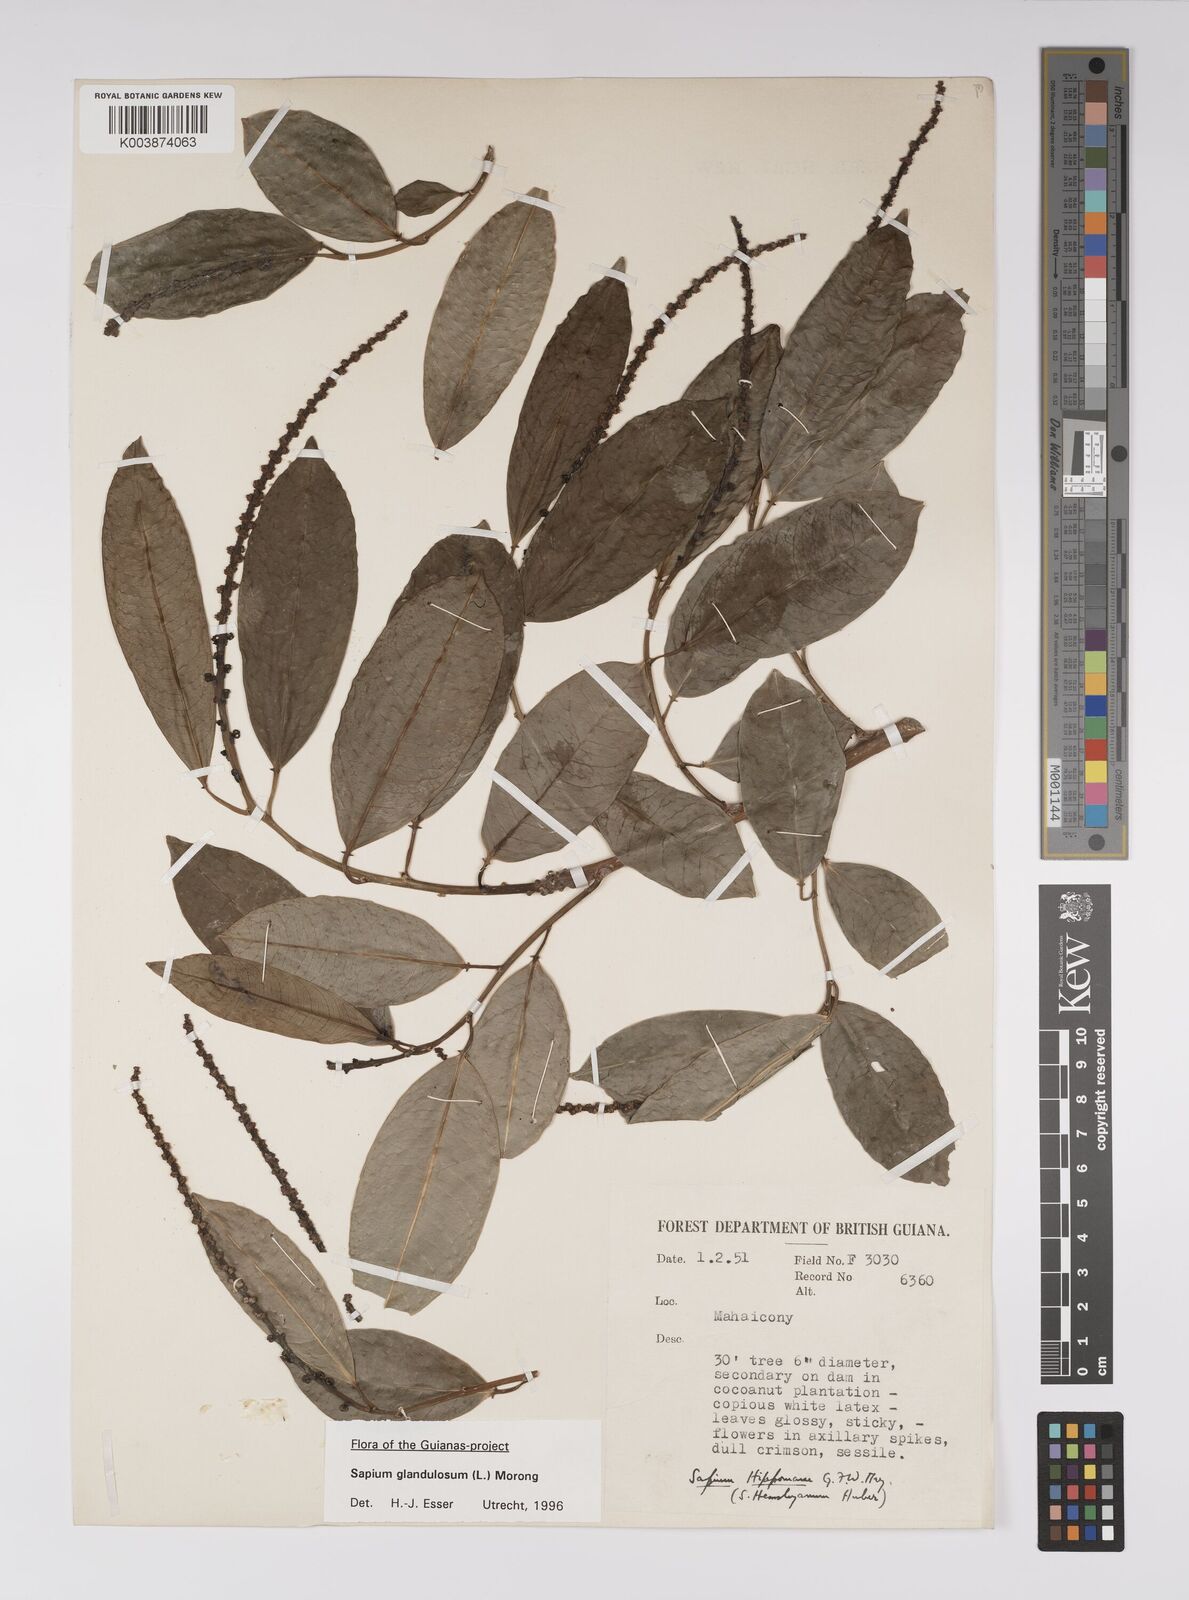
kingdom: Plantae
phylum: Tracheophyta
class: Magnoliopsida
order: Malpighiales
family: Euphorbiaceae
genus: Sapium
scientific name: Sapium glandulosum
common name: Milktree
